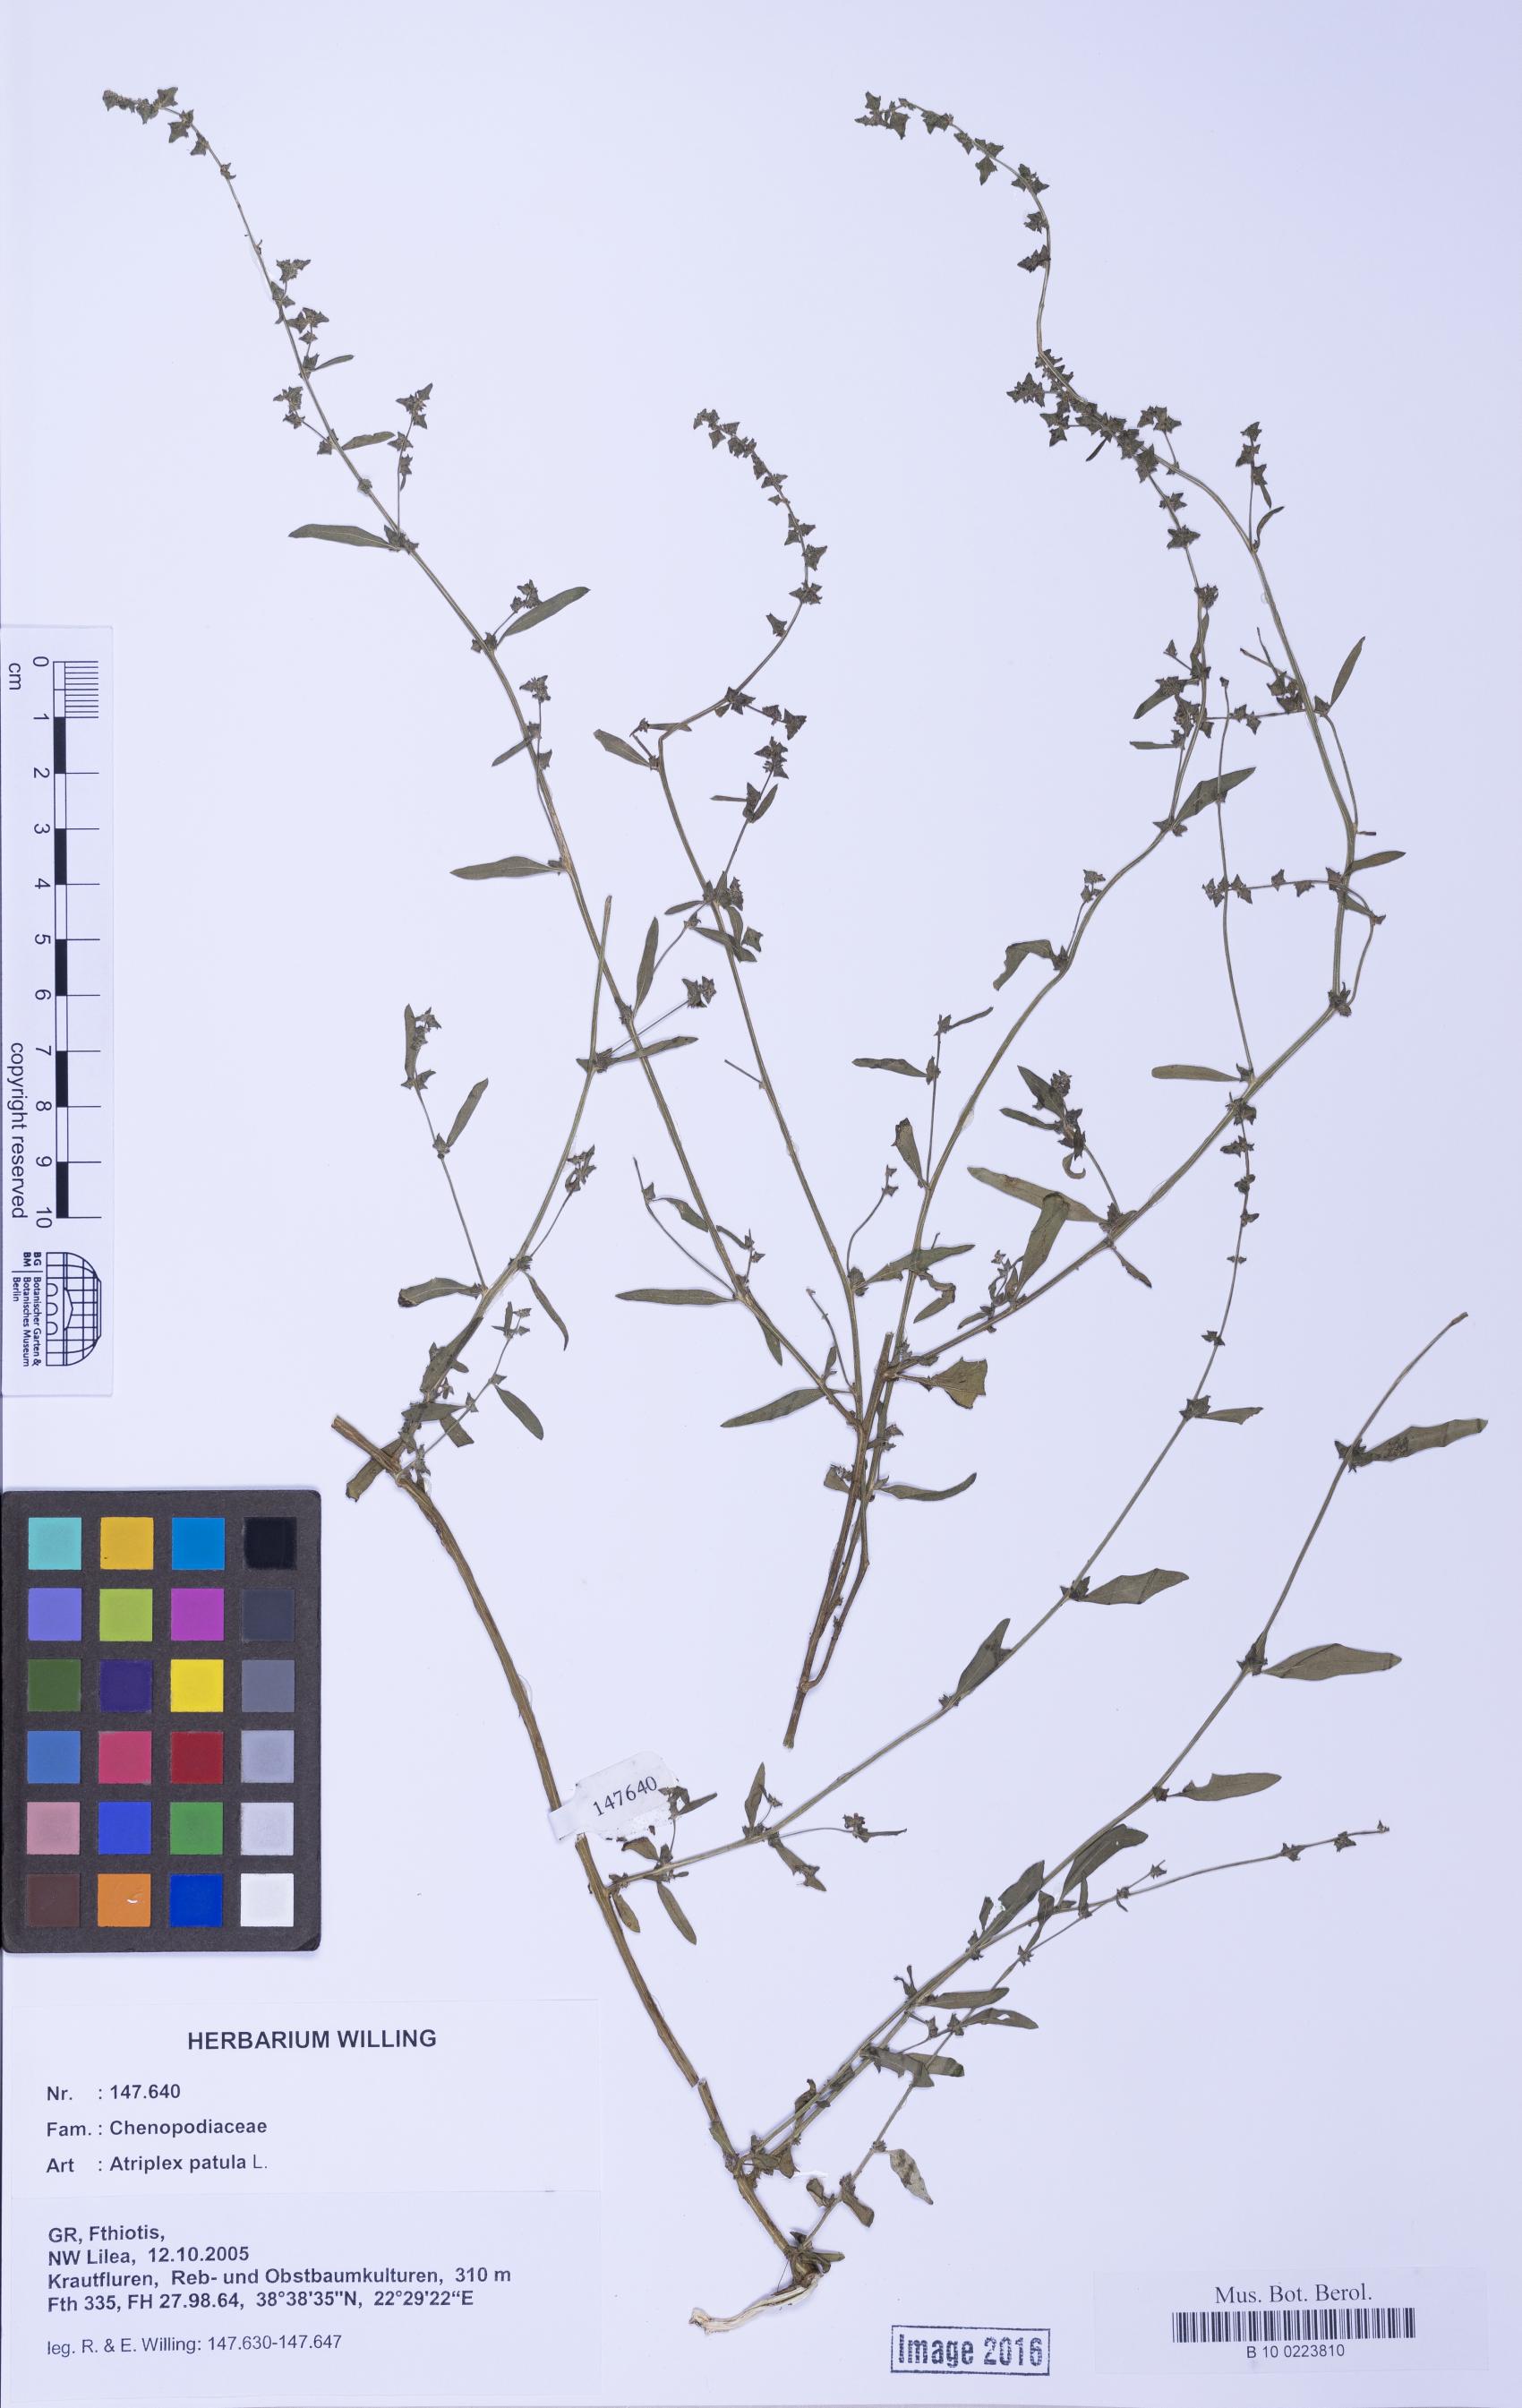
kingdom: Plantae
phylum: Tracheophyta
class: Magnoliopsida
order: Caryophyllales
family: Amaranthaceae
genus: Atriplex
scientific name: Atriplex patula
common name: Common orache
